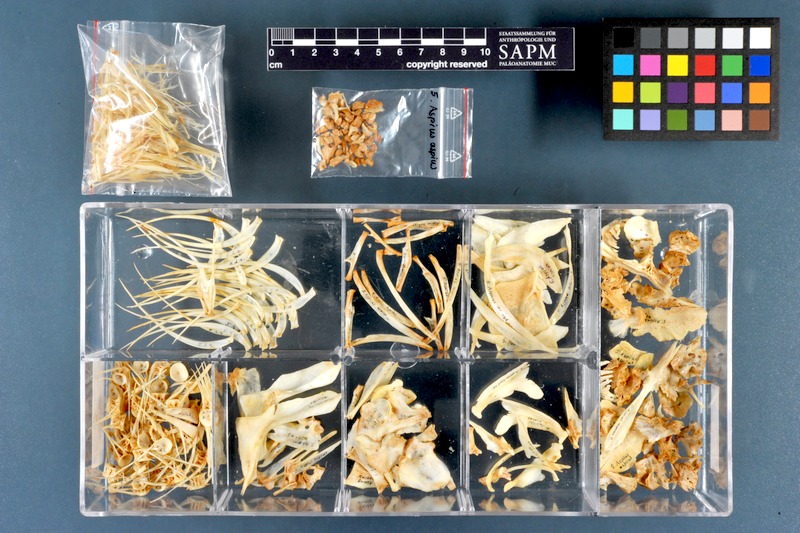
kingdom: Animalia
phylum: Chordata
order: Cypriniformes
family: Cyprinidae
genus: Leuciscus
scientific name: Leuciscus aspius
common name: Asp
